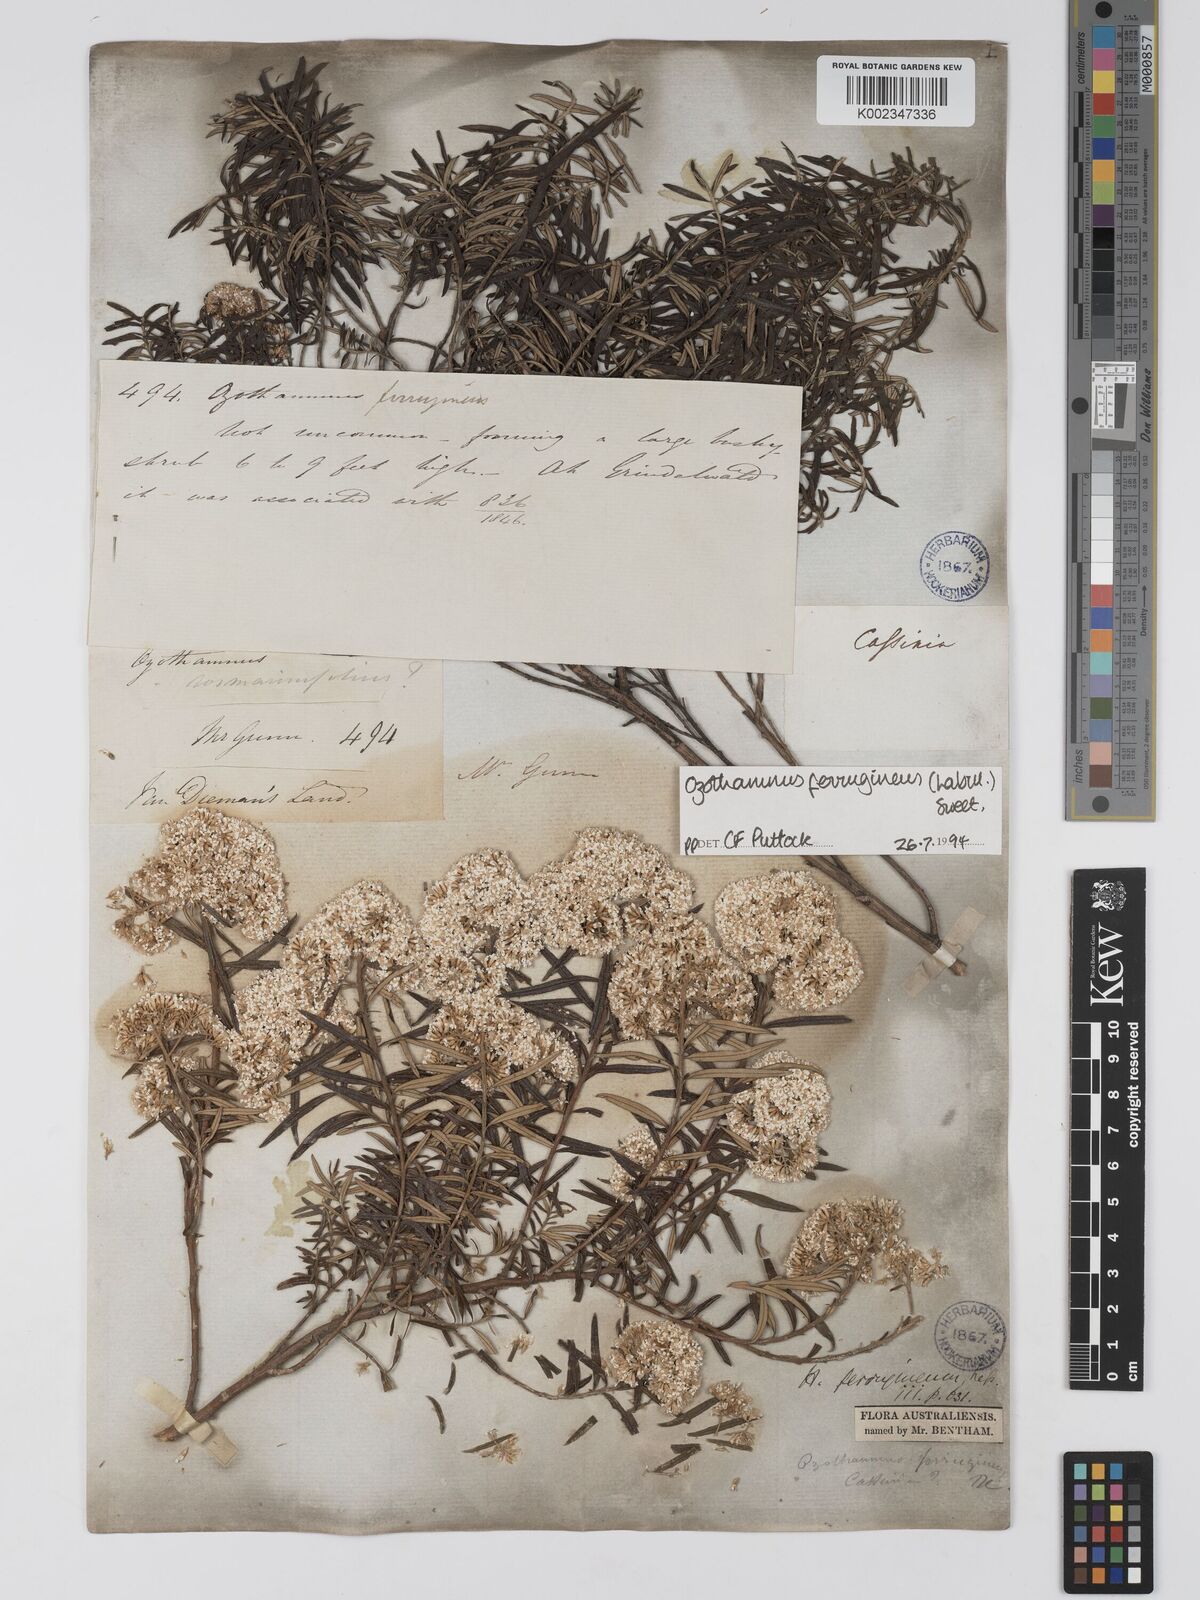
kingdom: Plantae
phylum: Tracheophyta
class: Magnoliopsida
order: Asterales
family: Asteraceae
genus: Ozothamnus
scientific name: Ozothamnus ferrugineus
